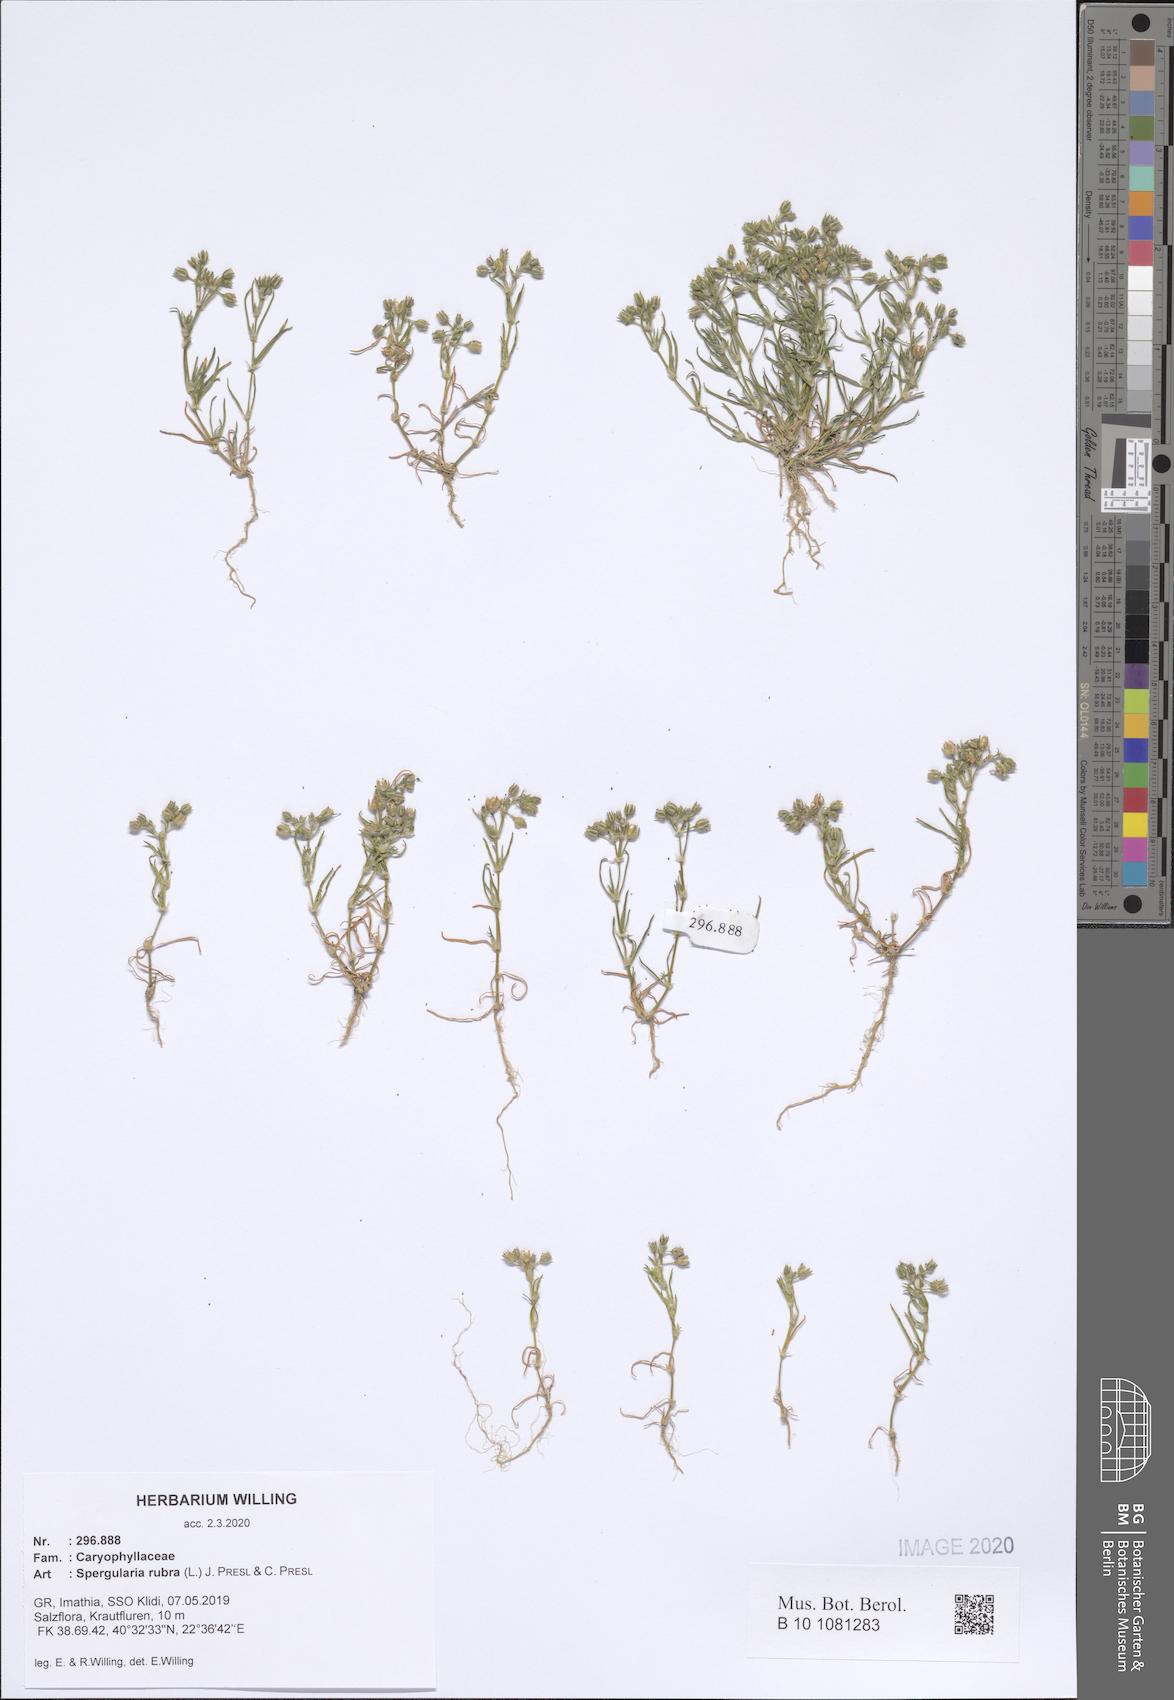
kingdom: Plantae
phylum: Tracheophyta
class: Magnoliopsida
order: Caryophyllales
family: Caryophyllaceae
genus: Spergularia
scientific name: Spergularia rubra
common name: Red sand-spurrey
